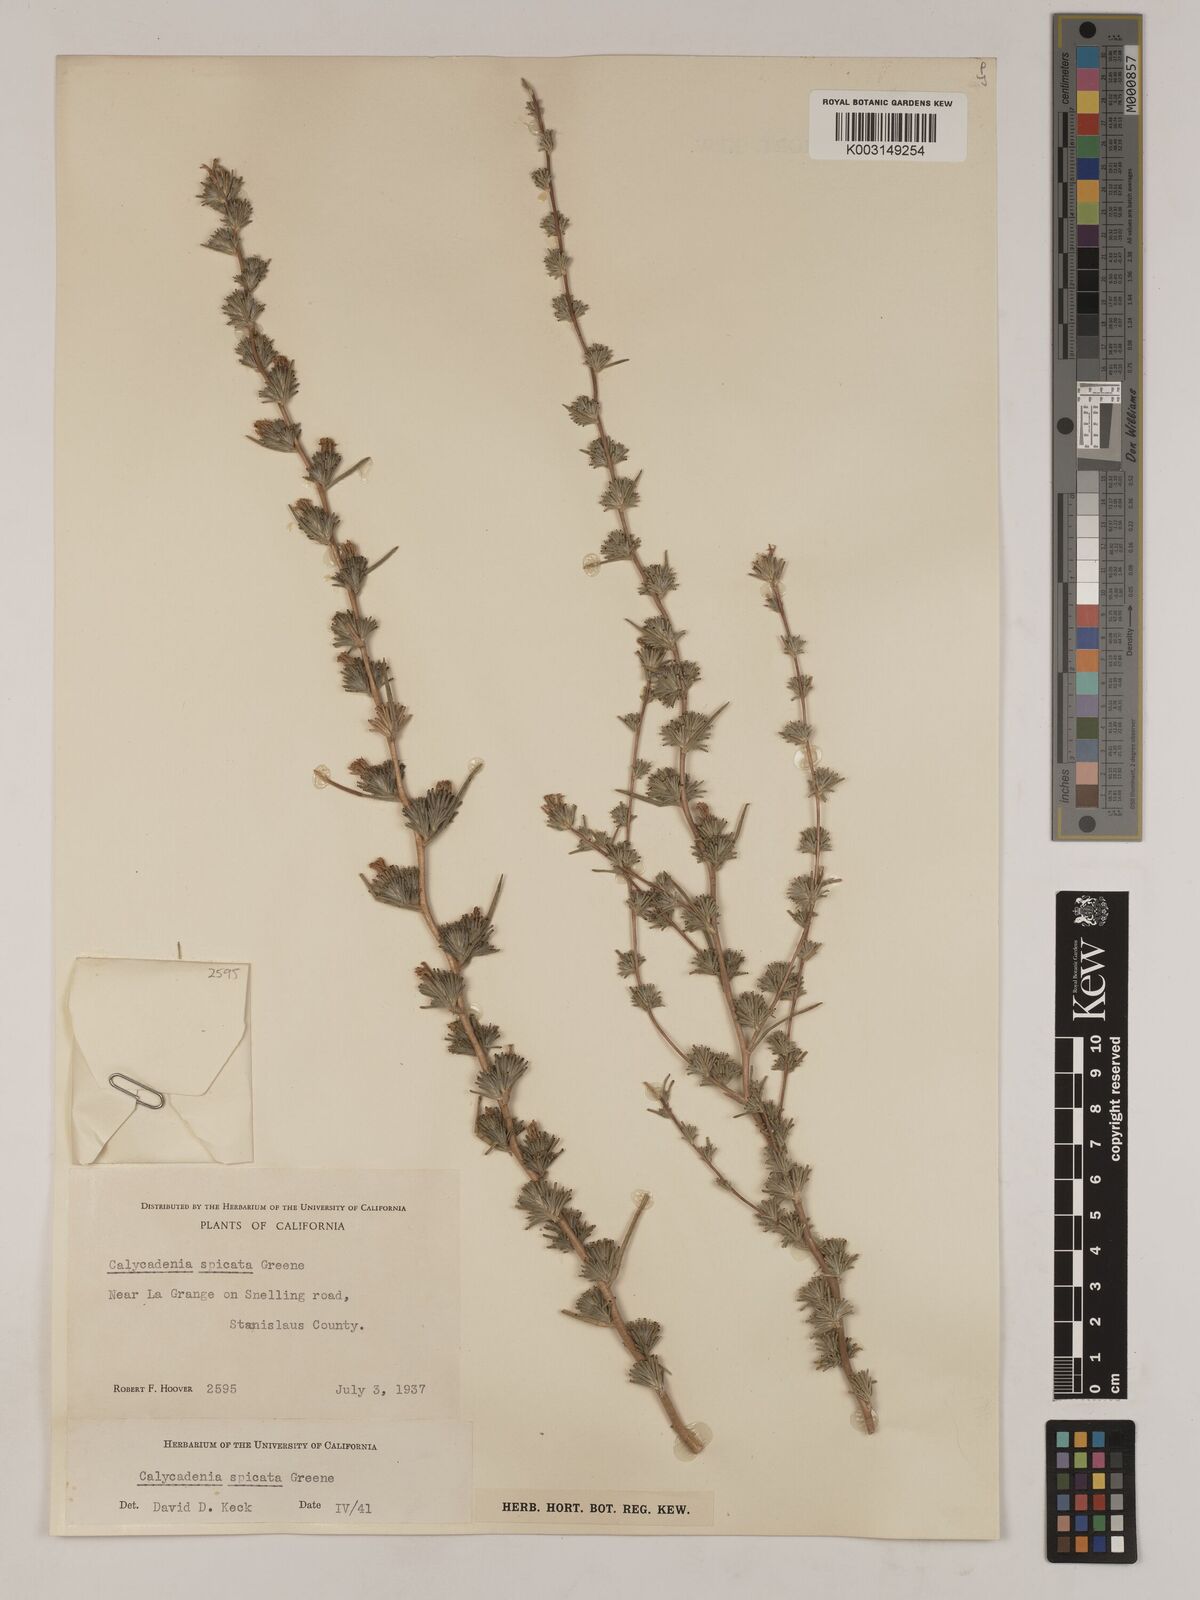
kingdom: Plantae
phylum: Tracheophyta
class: Magnoliopsida
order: Asterales
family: Asteraceae
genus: Calycadenia
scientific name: Calycadenia spicata
